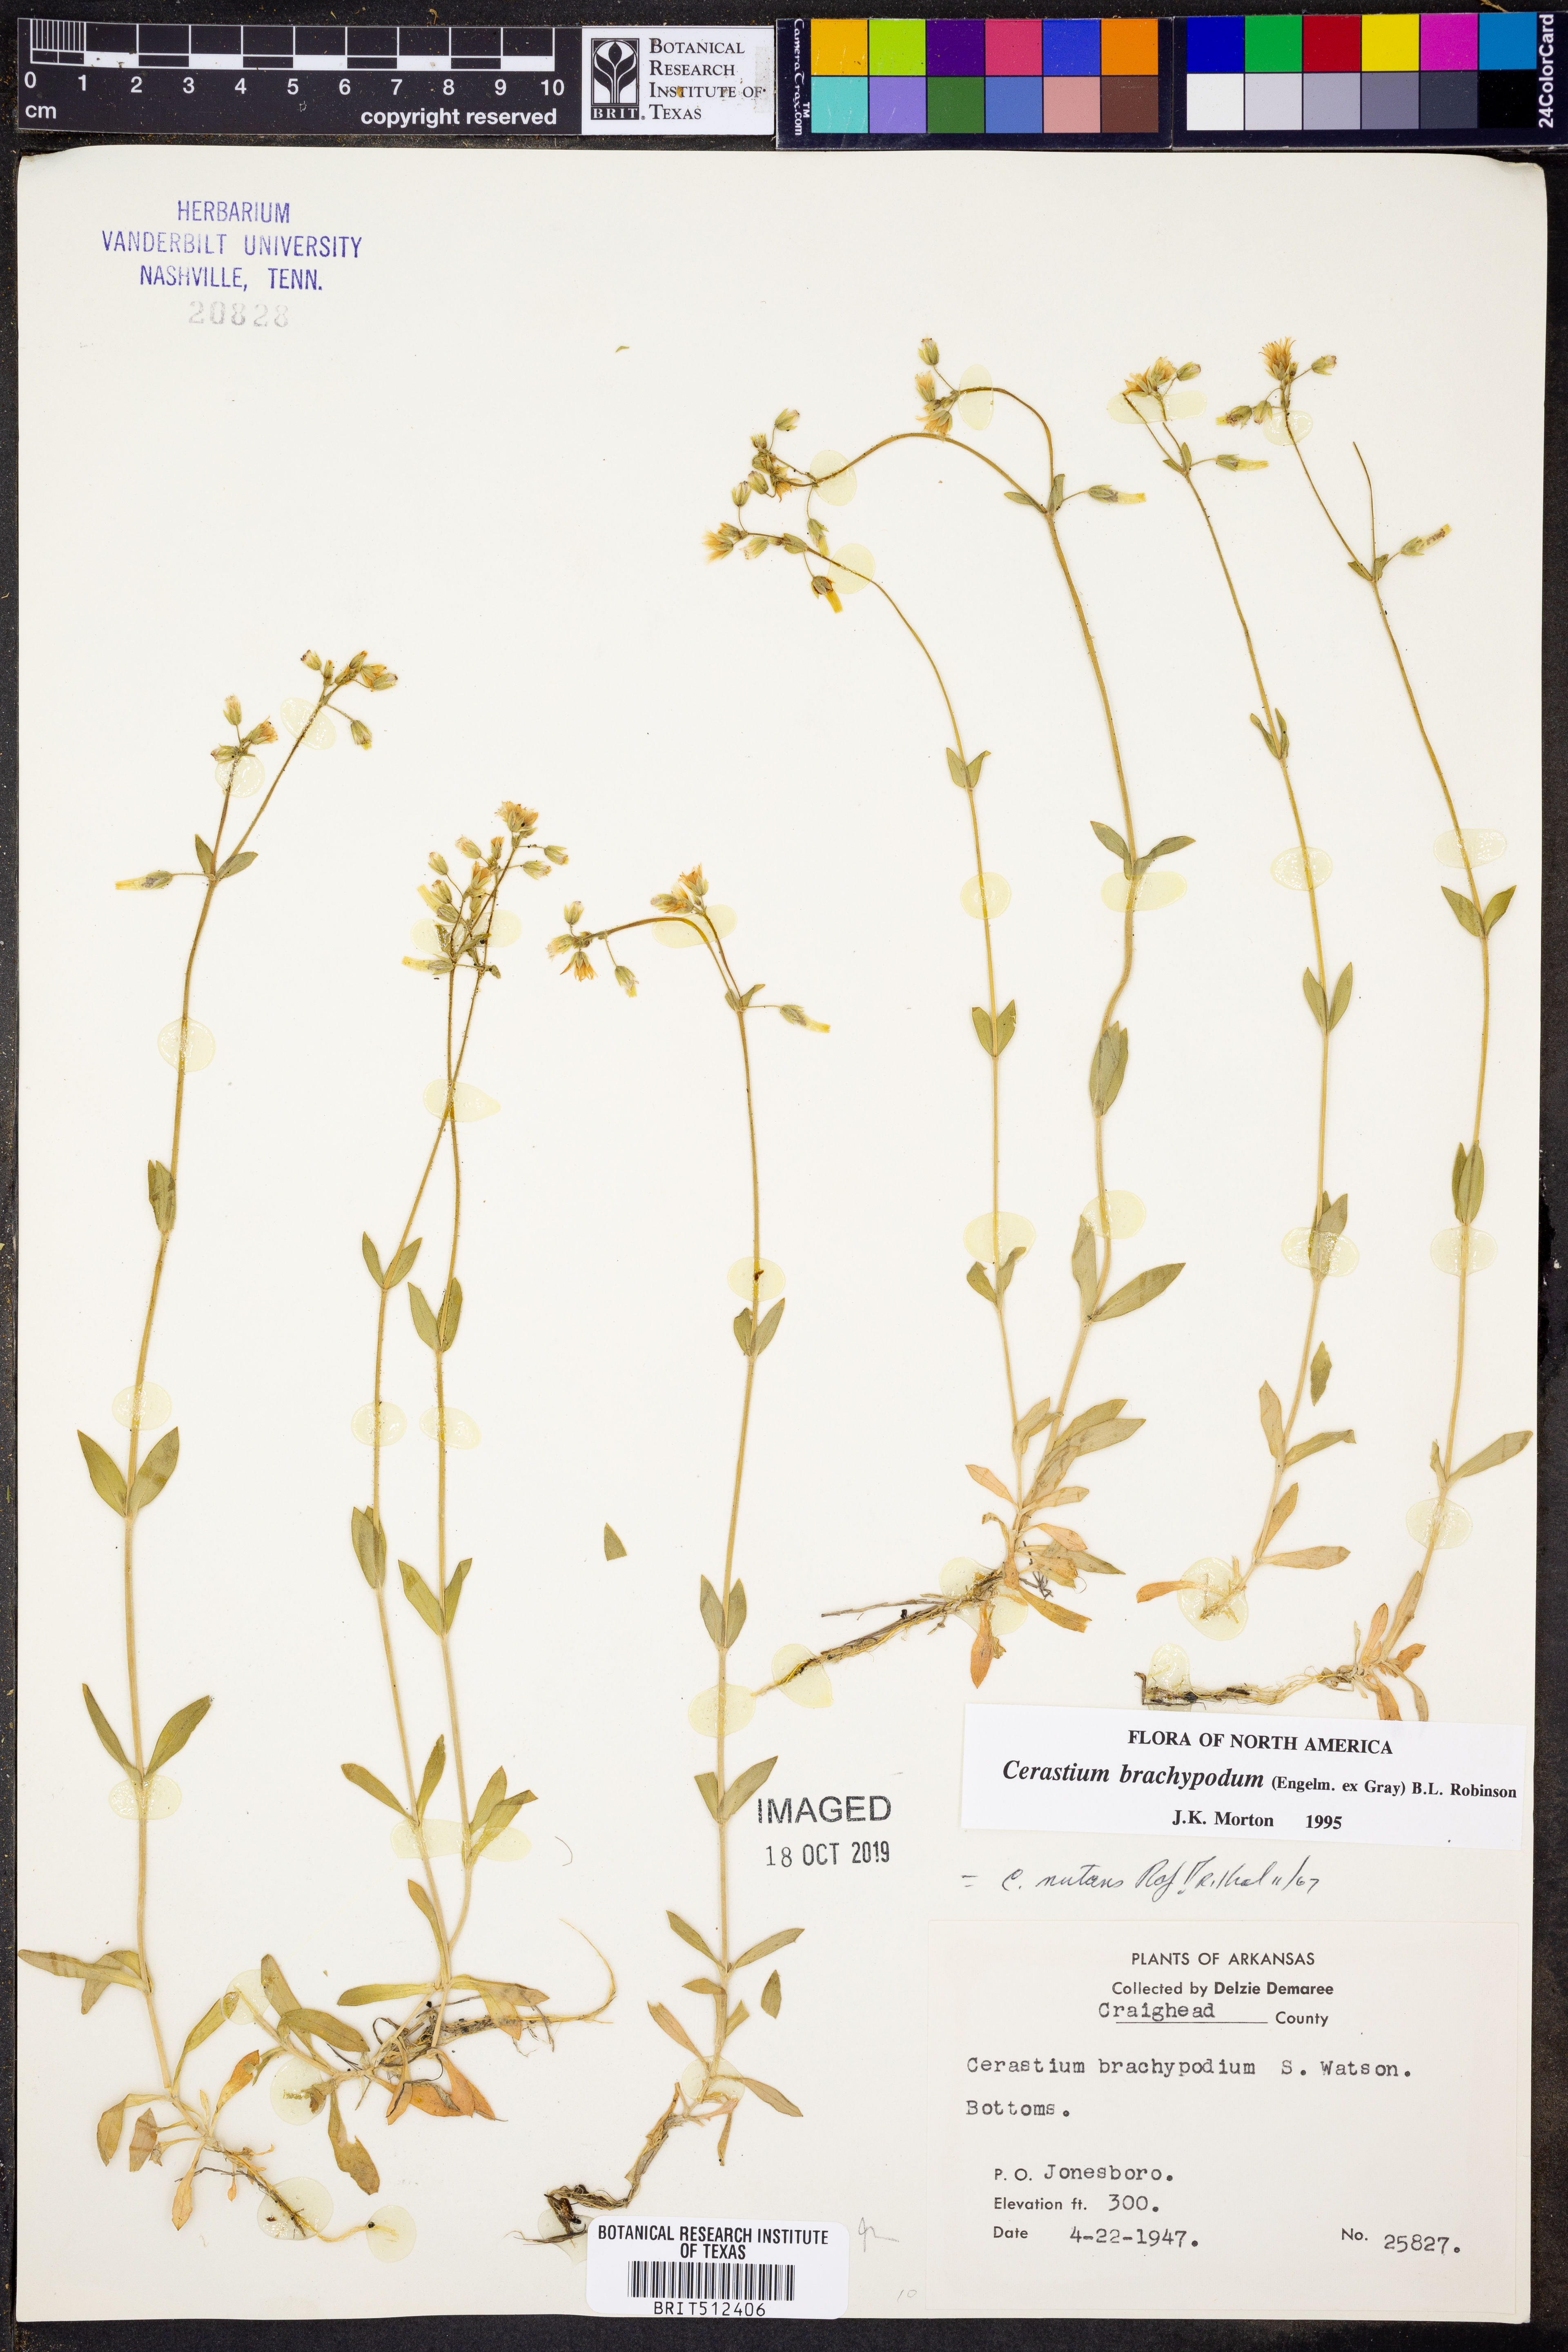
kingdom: Plantae
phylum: Tracheophyta
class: Magnoliopsida
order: Caryophyllales
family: Caryophyllaceae
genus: Cerastium
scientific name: Cerastium brachypodum
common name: Short-pedicelled nodding chickweed
